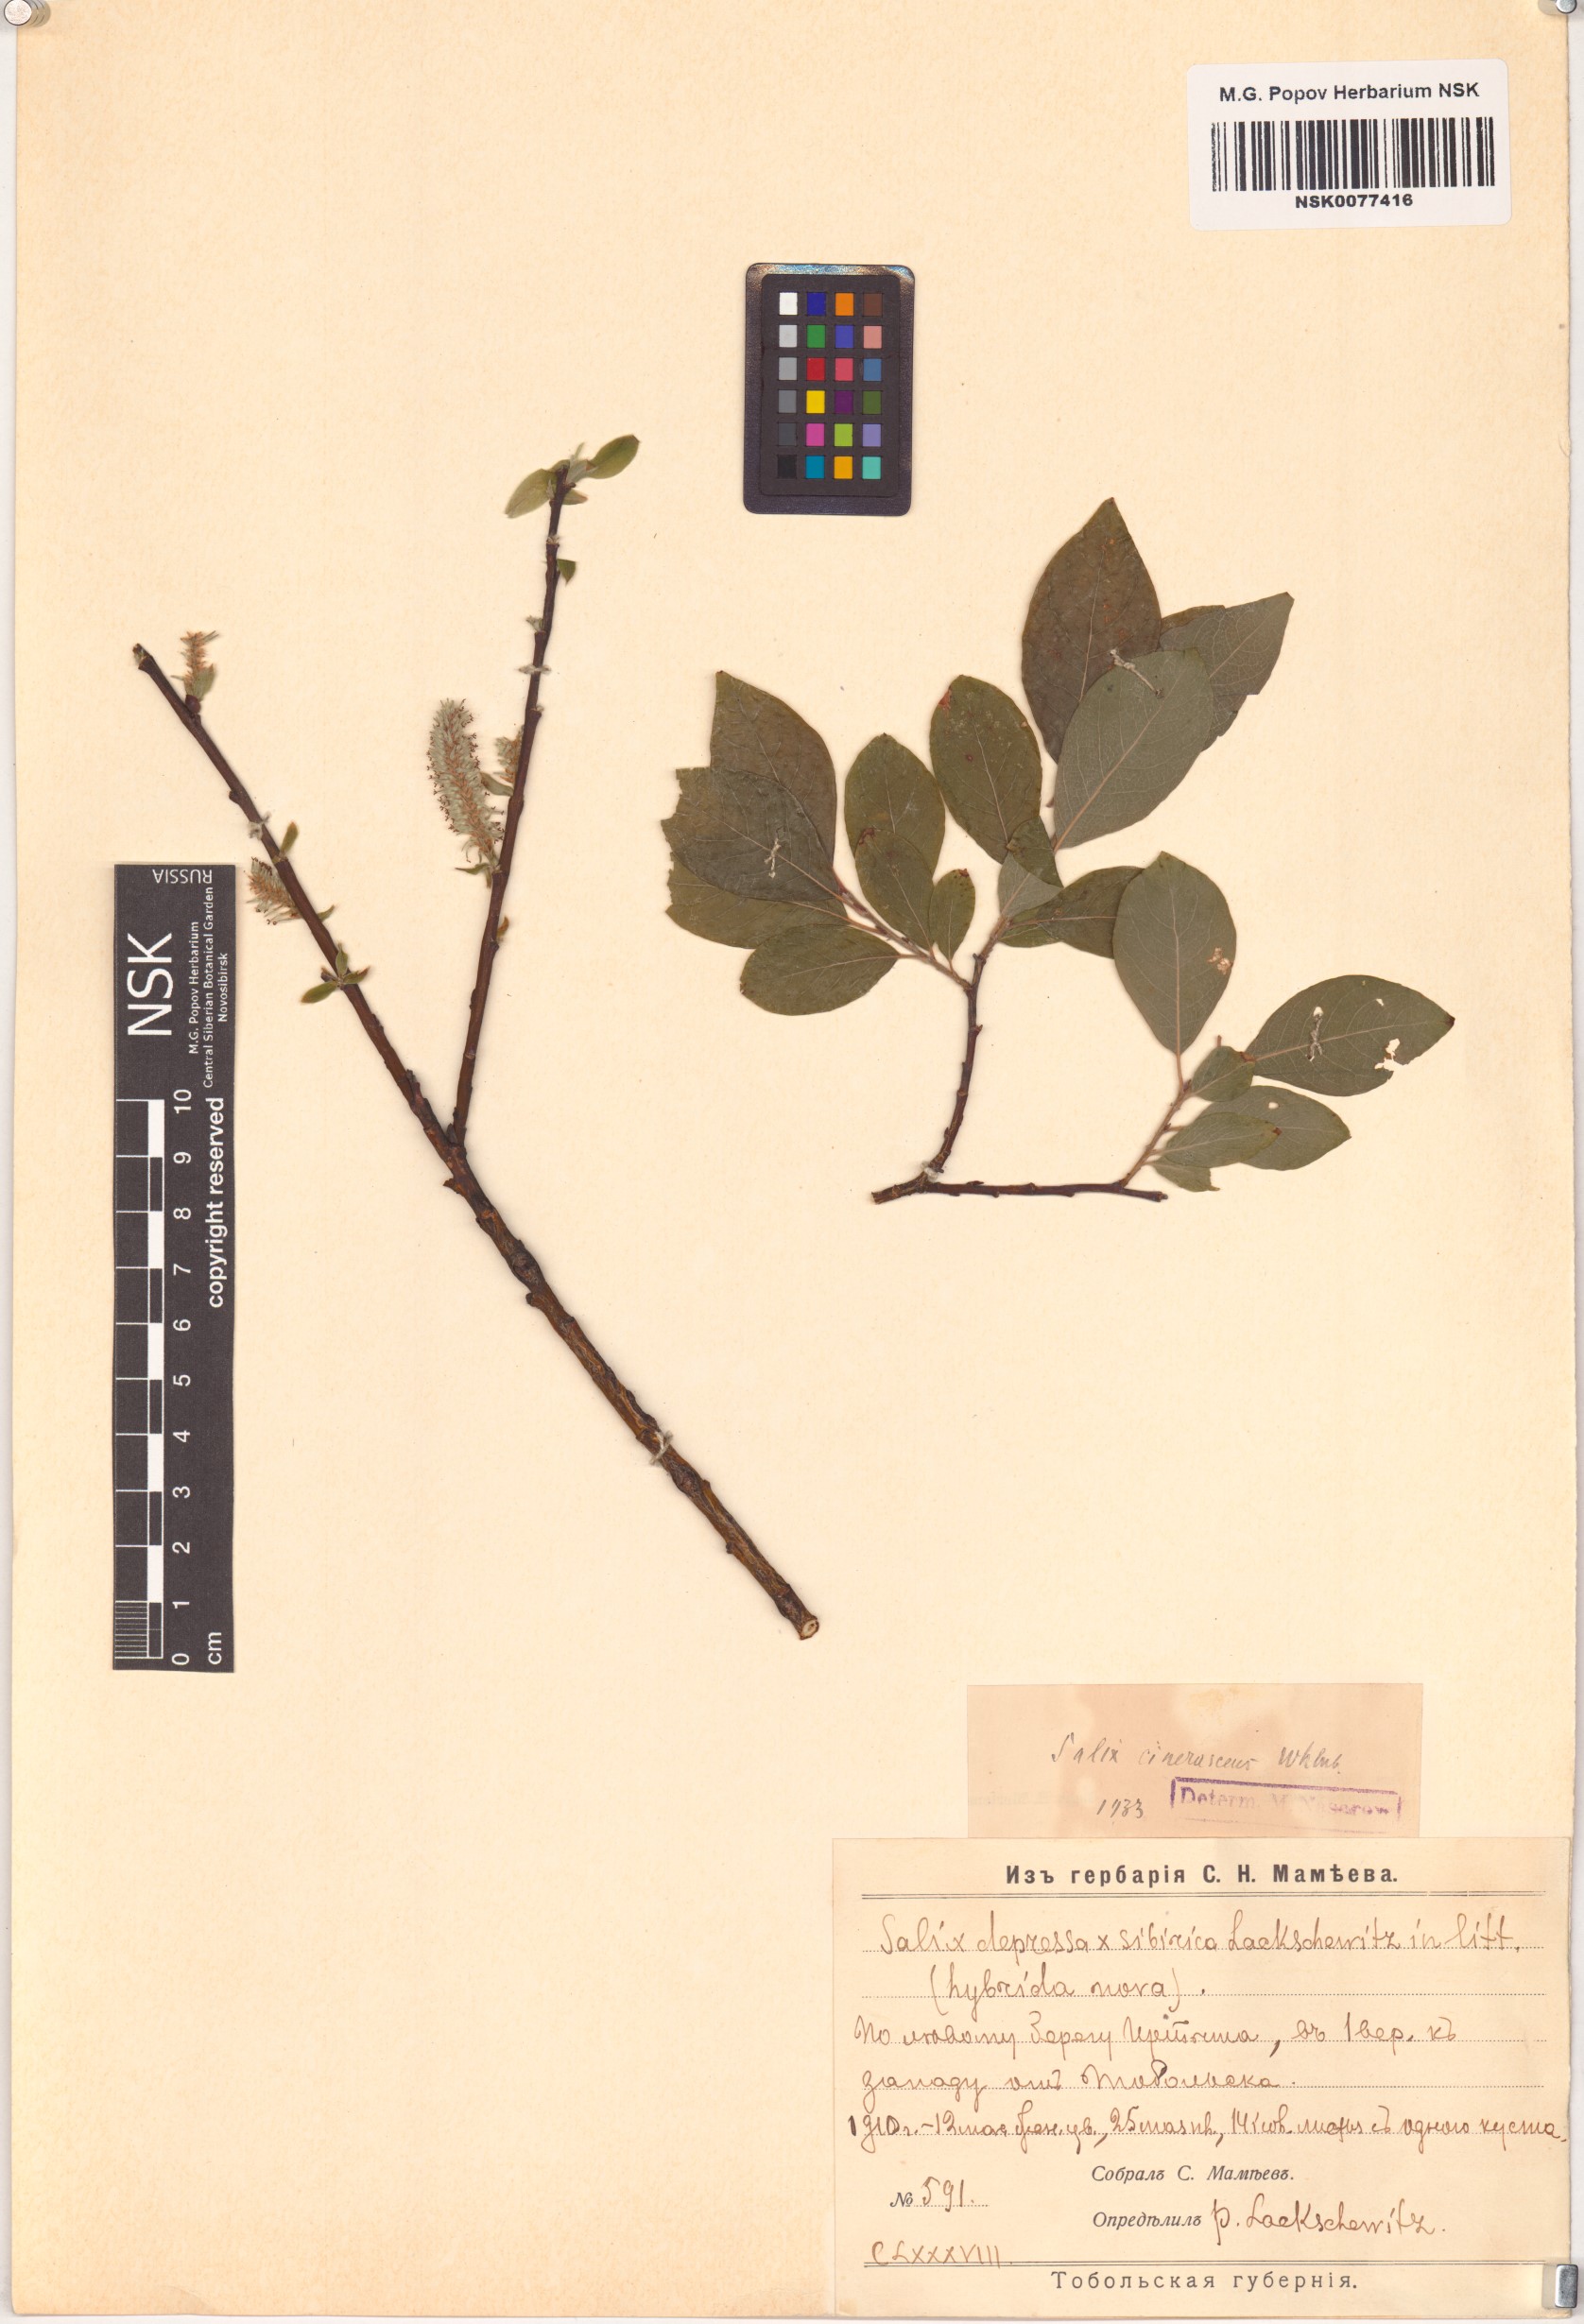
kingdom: Plantae
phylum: Tracheophyta
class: Magnoliopsida
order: Malpighiales
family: Salicaceae
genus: Salix
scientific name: Salix
